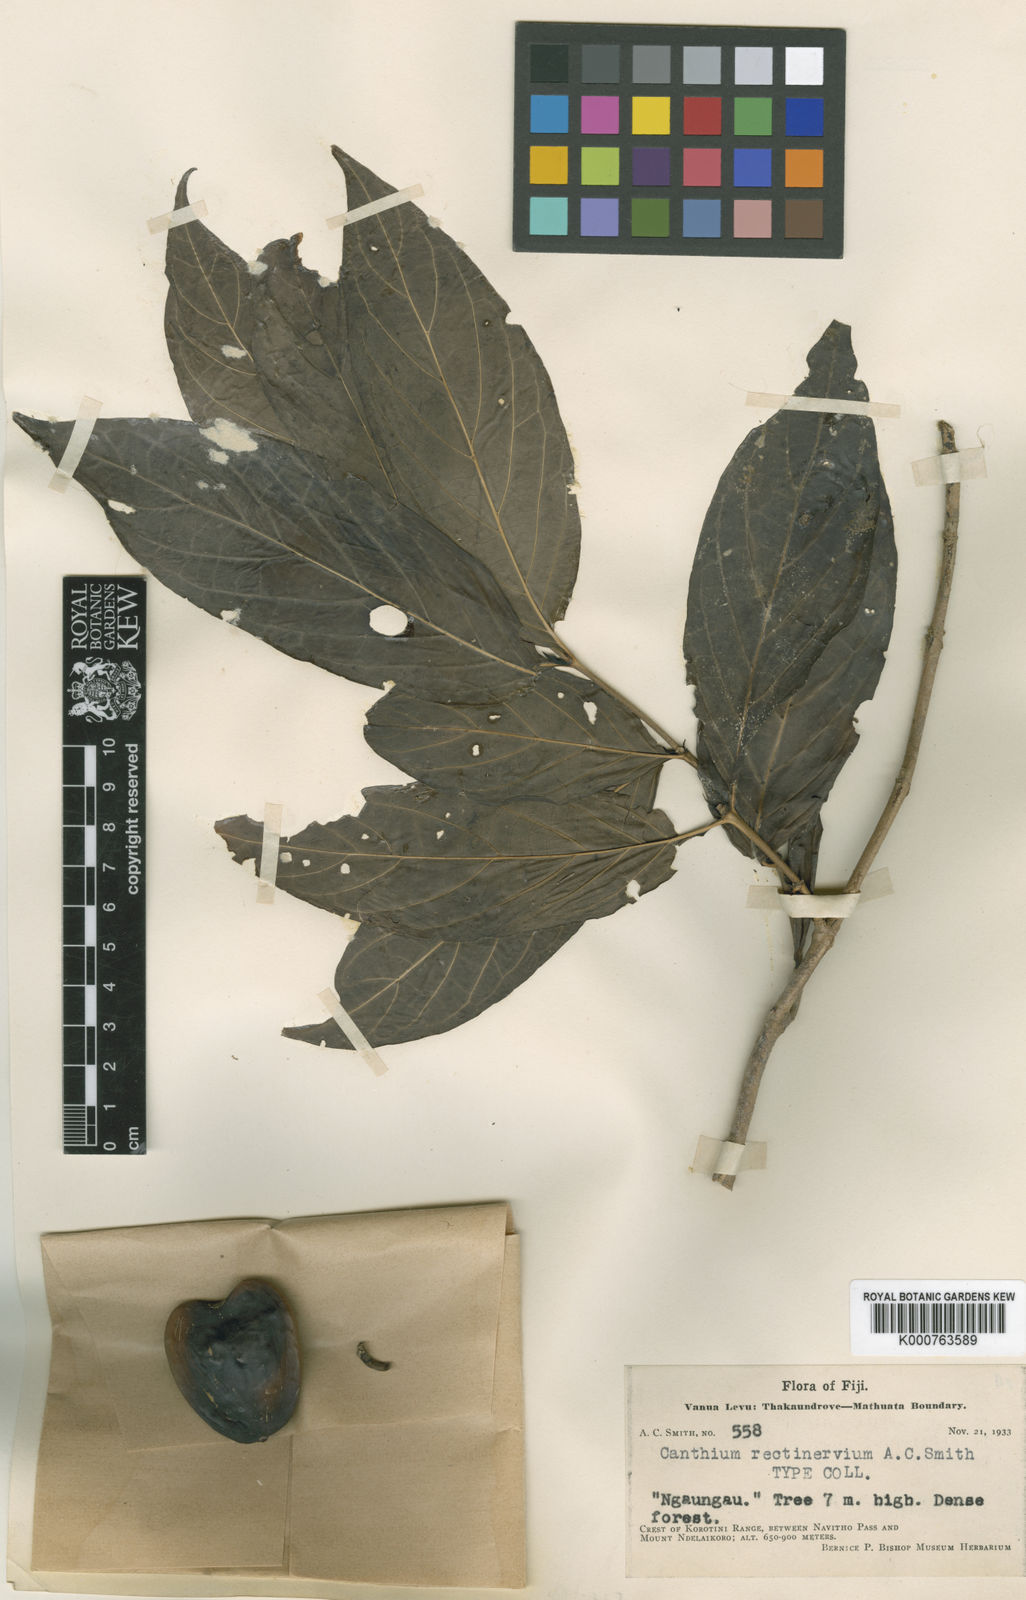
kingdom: Plantae
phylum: Tracheophyta
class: Magnoliopsida
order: Gentianales
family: Rubiaceae
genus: Cyclophyllum
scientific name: Cyclophyllum rectinervium
